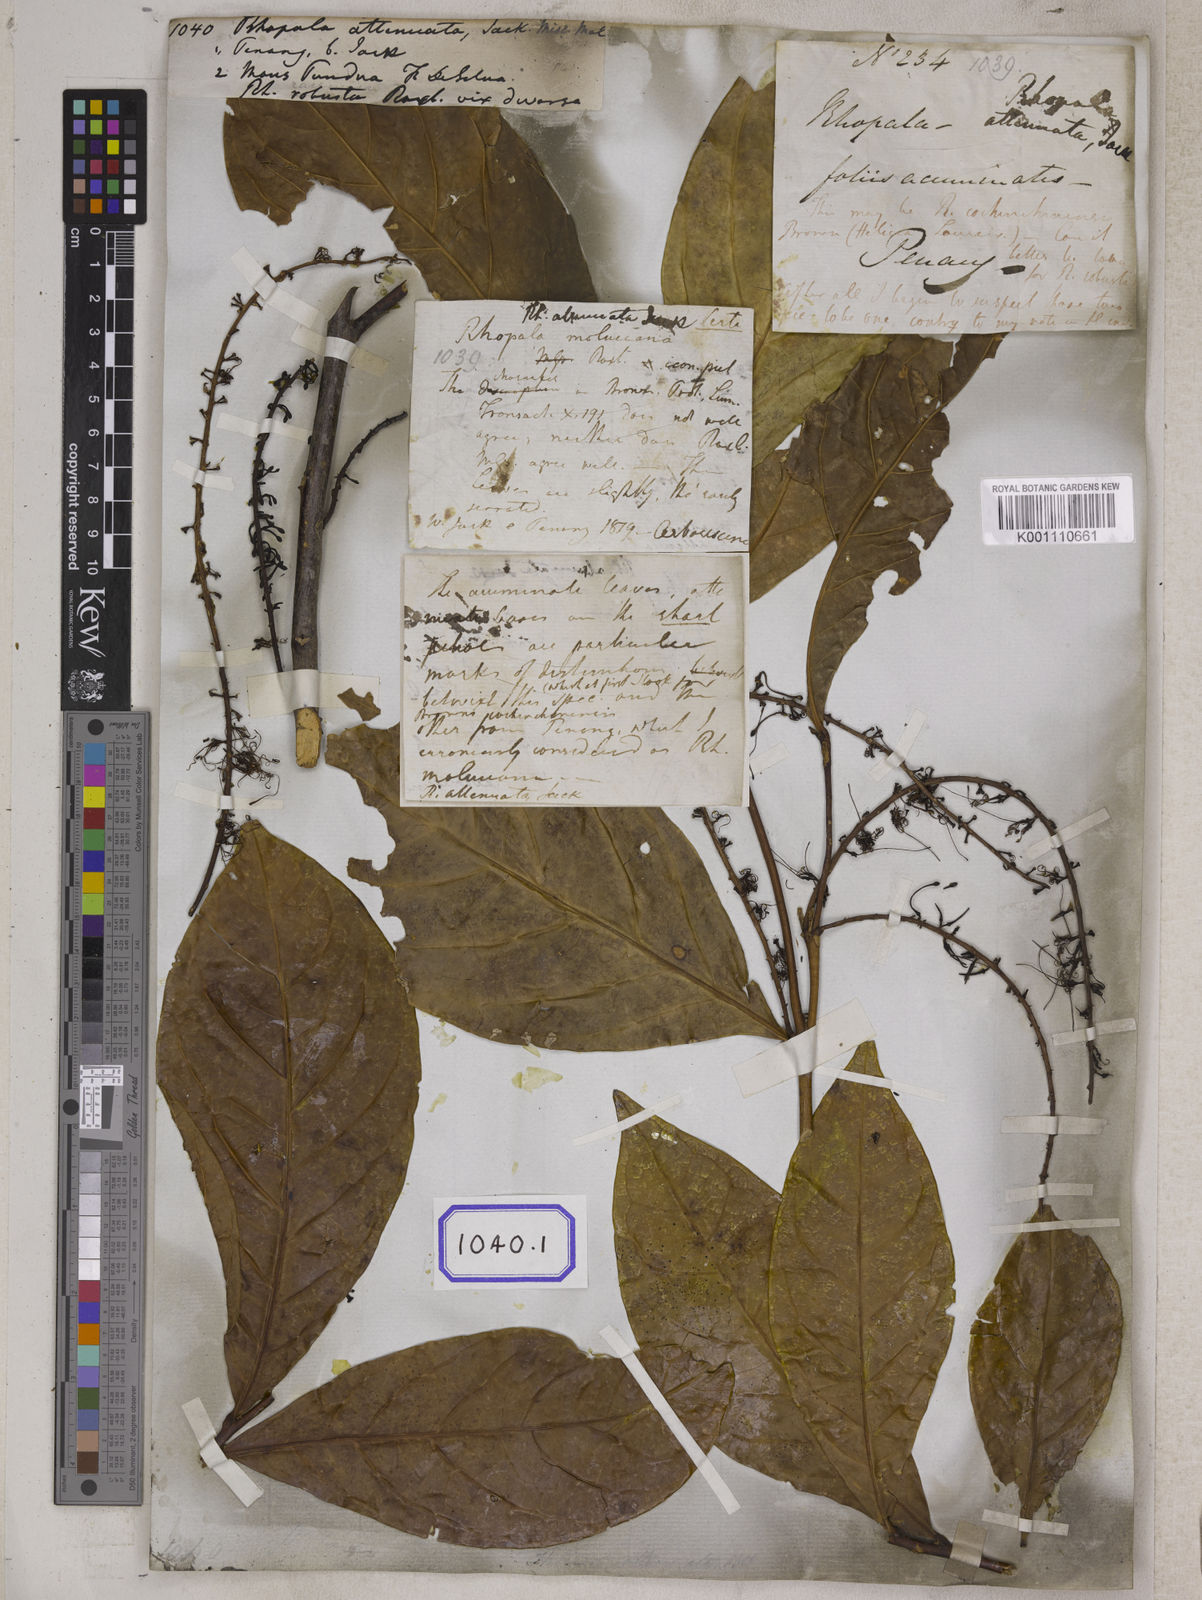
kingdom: Plantae
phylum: Tracheophyta
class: Magnoliopsida
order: Proteales
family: Proteaceae
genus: Helicia
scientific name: Helicia attenuata
